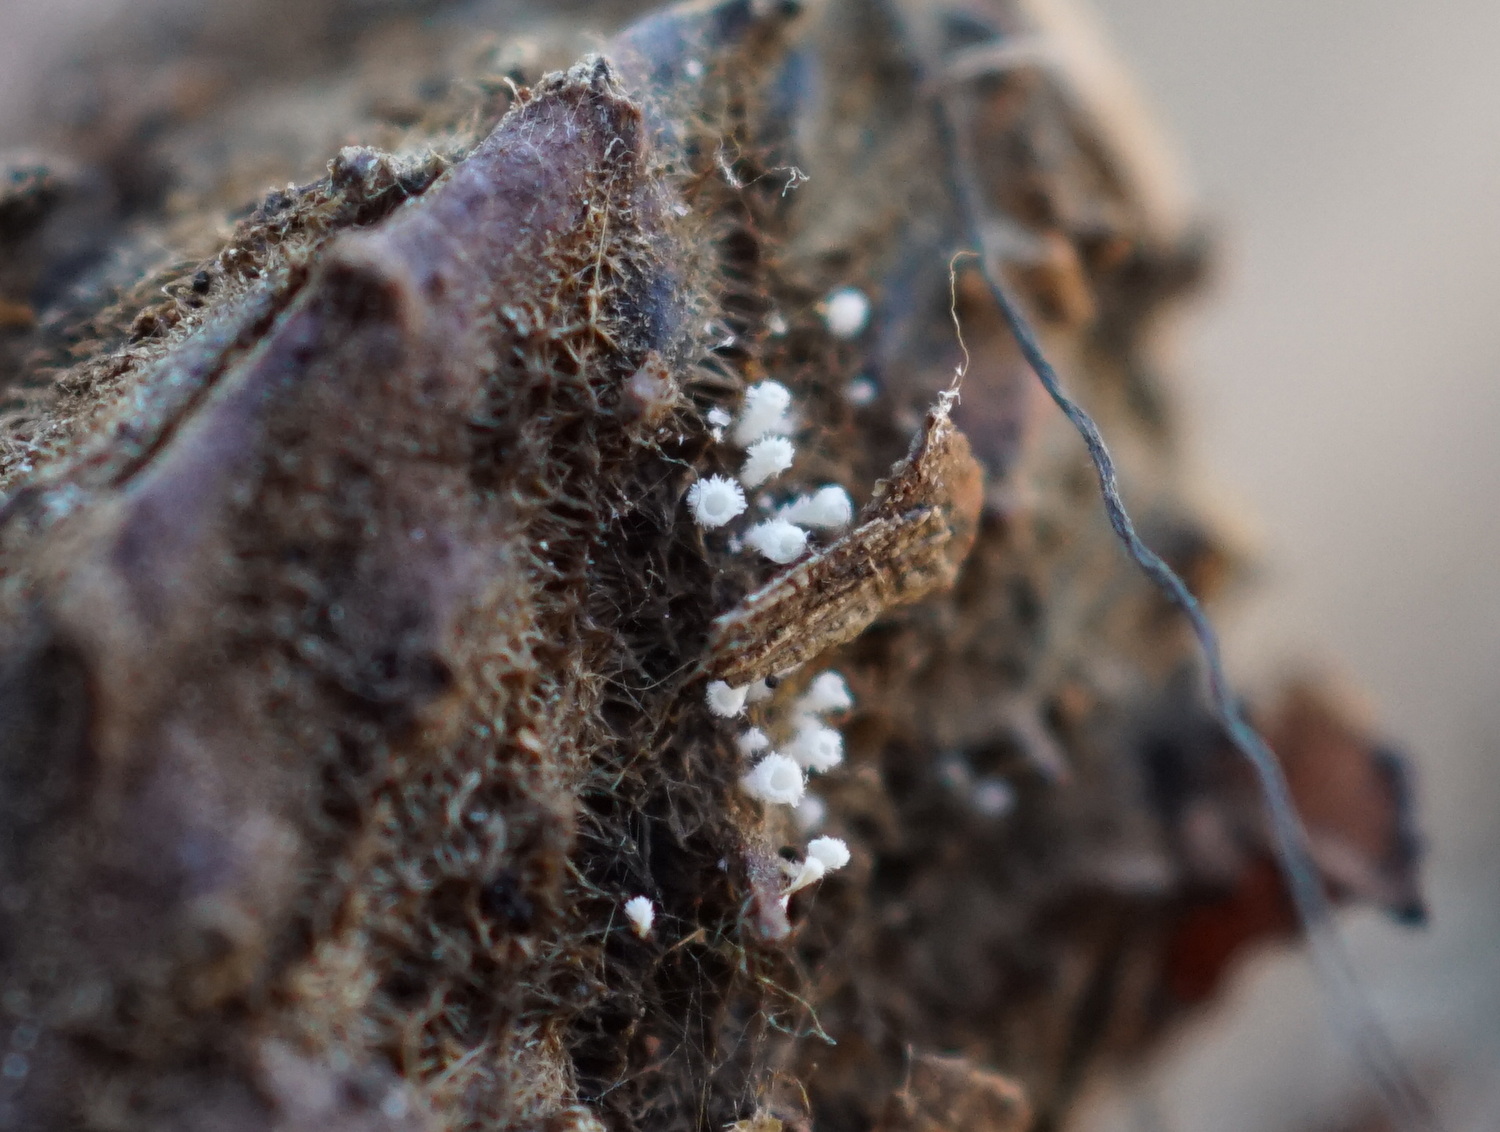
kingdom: Fungi
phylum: Ascomycota
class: Leotiomycetes
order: Helotiales
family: Lachnaceae
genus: Lachnum
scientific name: Lachnum virgineum
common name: jomfru-frynseskive
